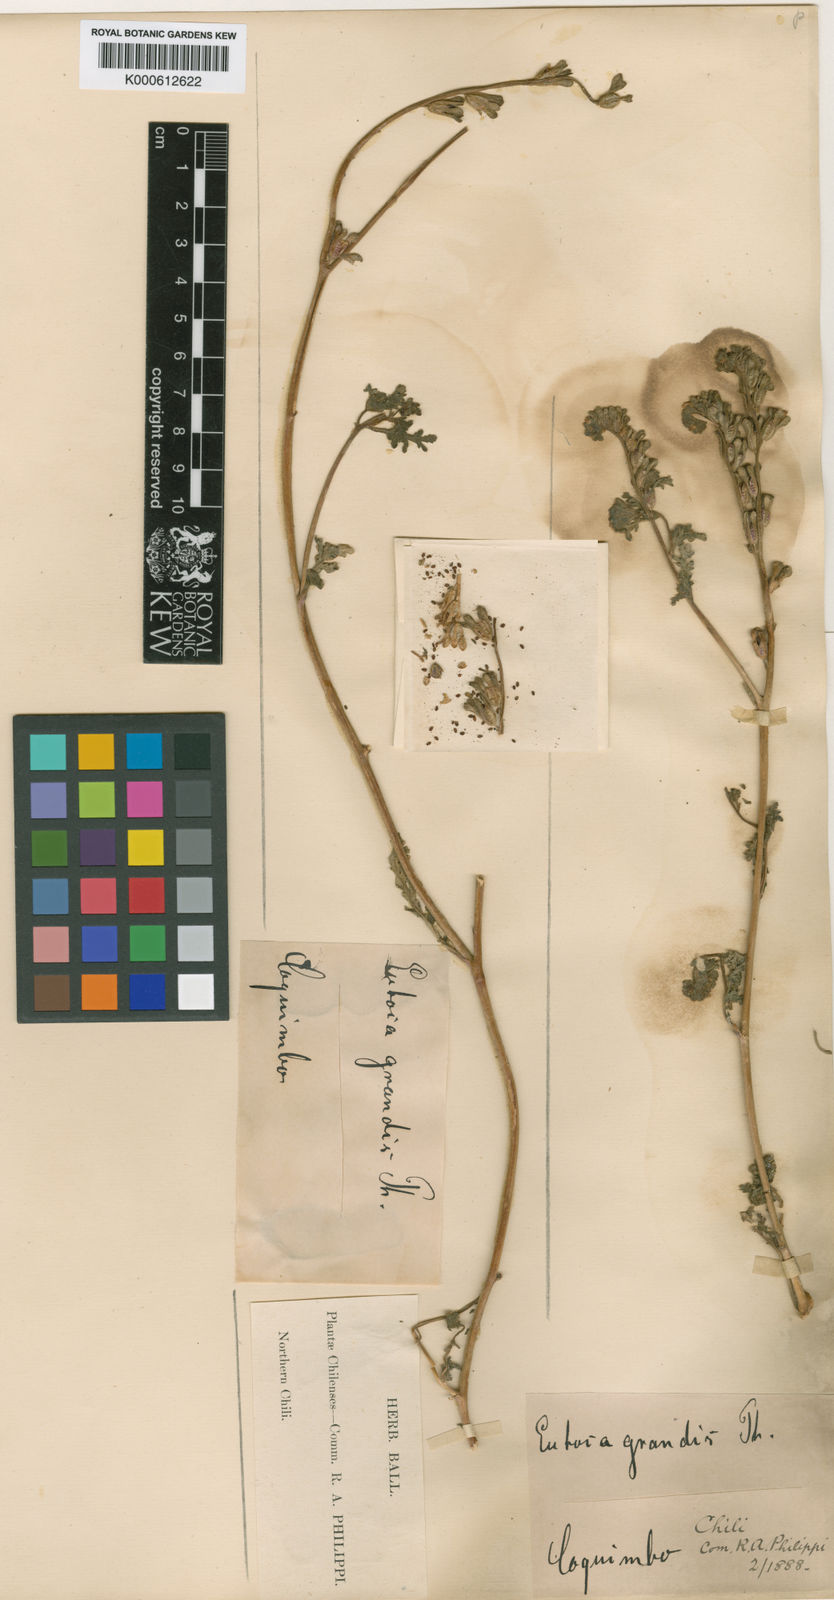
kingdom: Plantae
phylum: Tracheophyta
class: Magnoliopsida
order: Boraginales
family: Hydrophyllaceae
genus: Phacelia
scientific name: Phacelia cumingii
